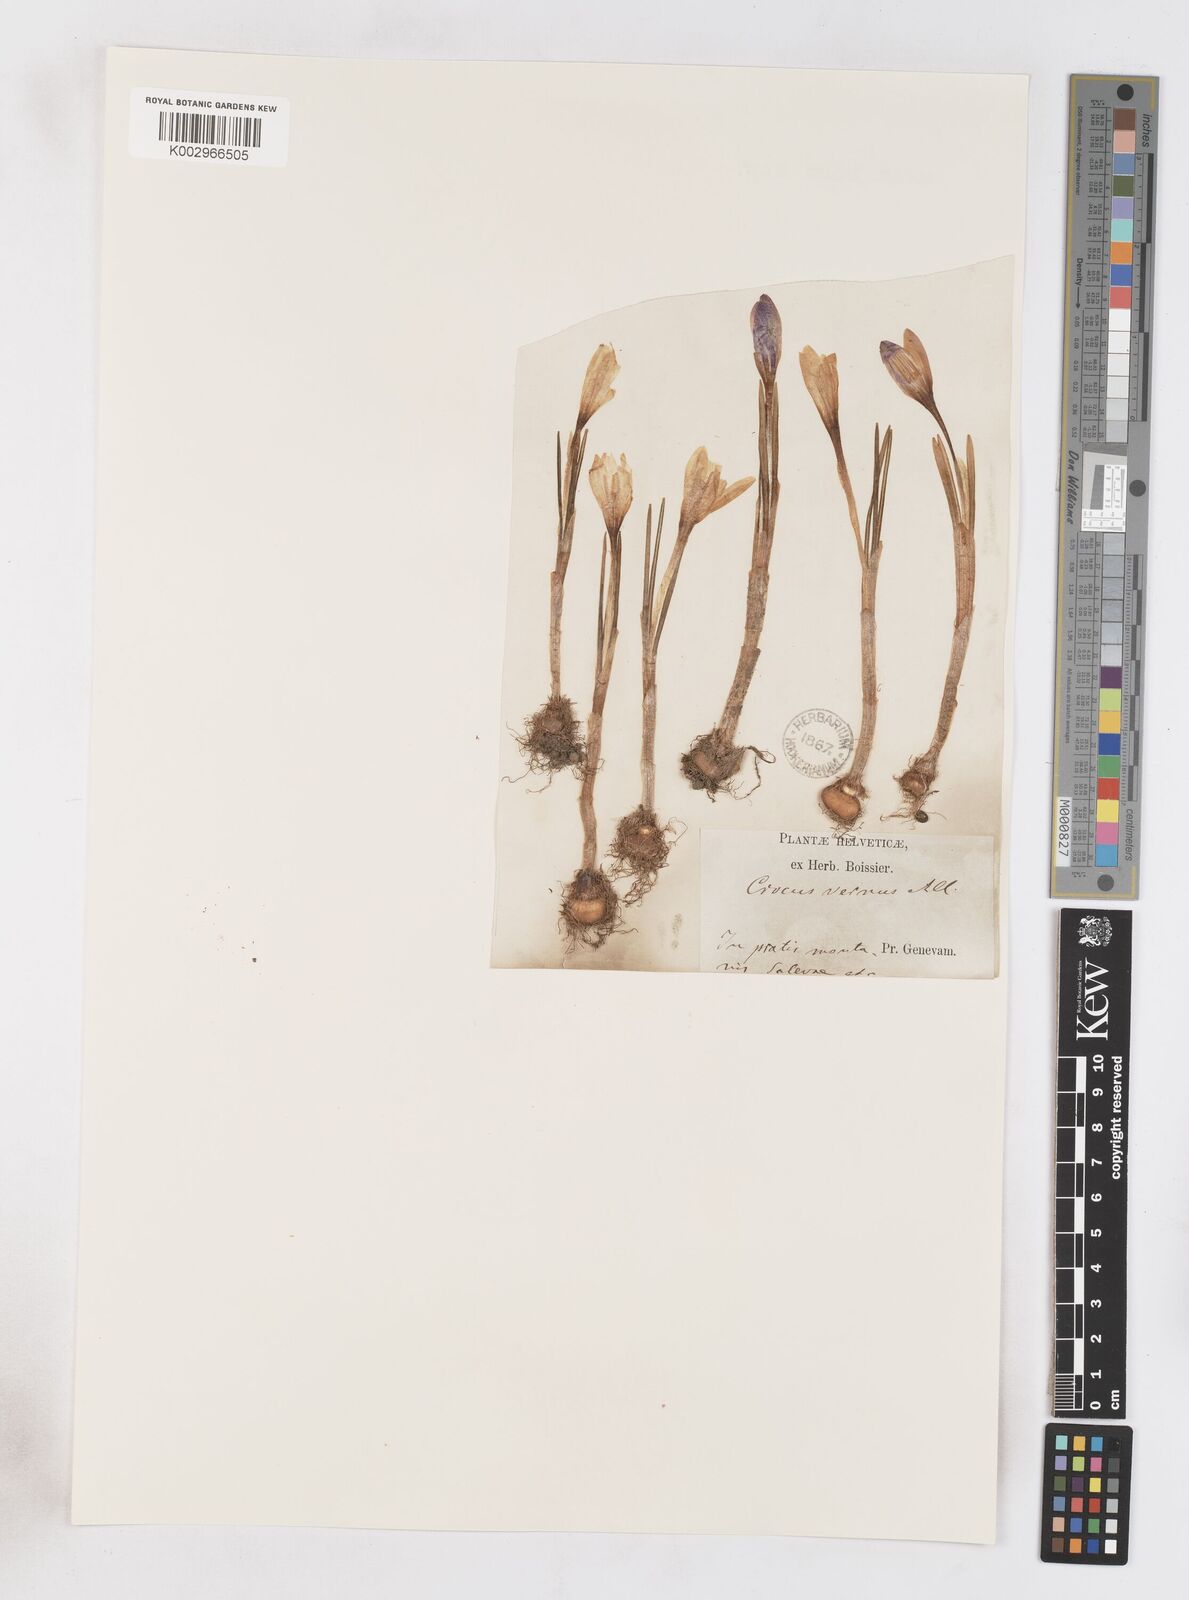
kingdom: Plantae
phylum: Tracheophyta
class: Liliopsida
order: Asparagales
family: Iridaceae
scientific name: Iridaceae
